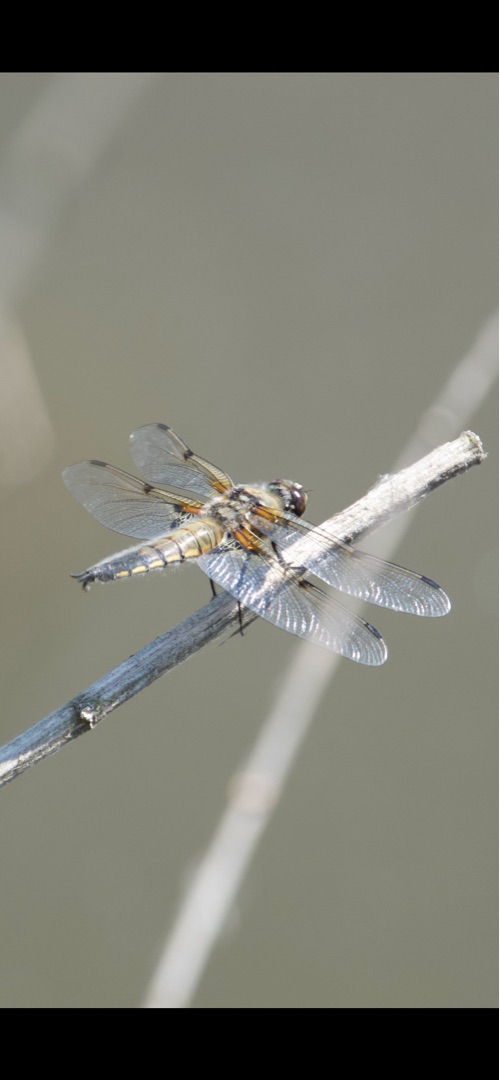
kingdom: Animalia
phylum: Arthropoda
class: Insecta
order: Odonata
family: Libellulidae
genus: Libellula
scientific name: Libellula quadrimaculata
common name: Fireplettet libel
